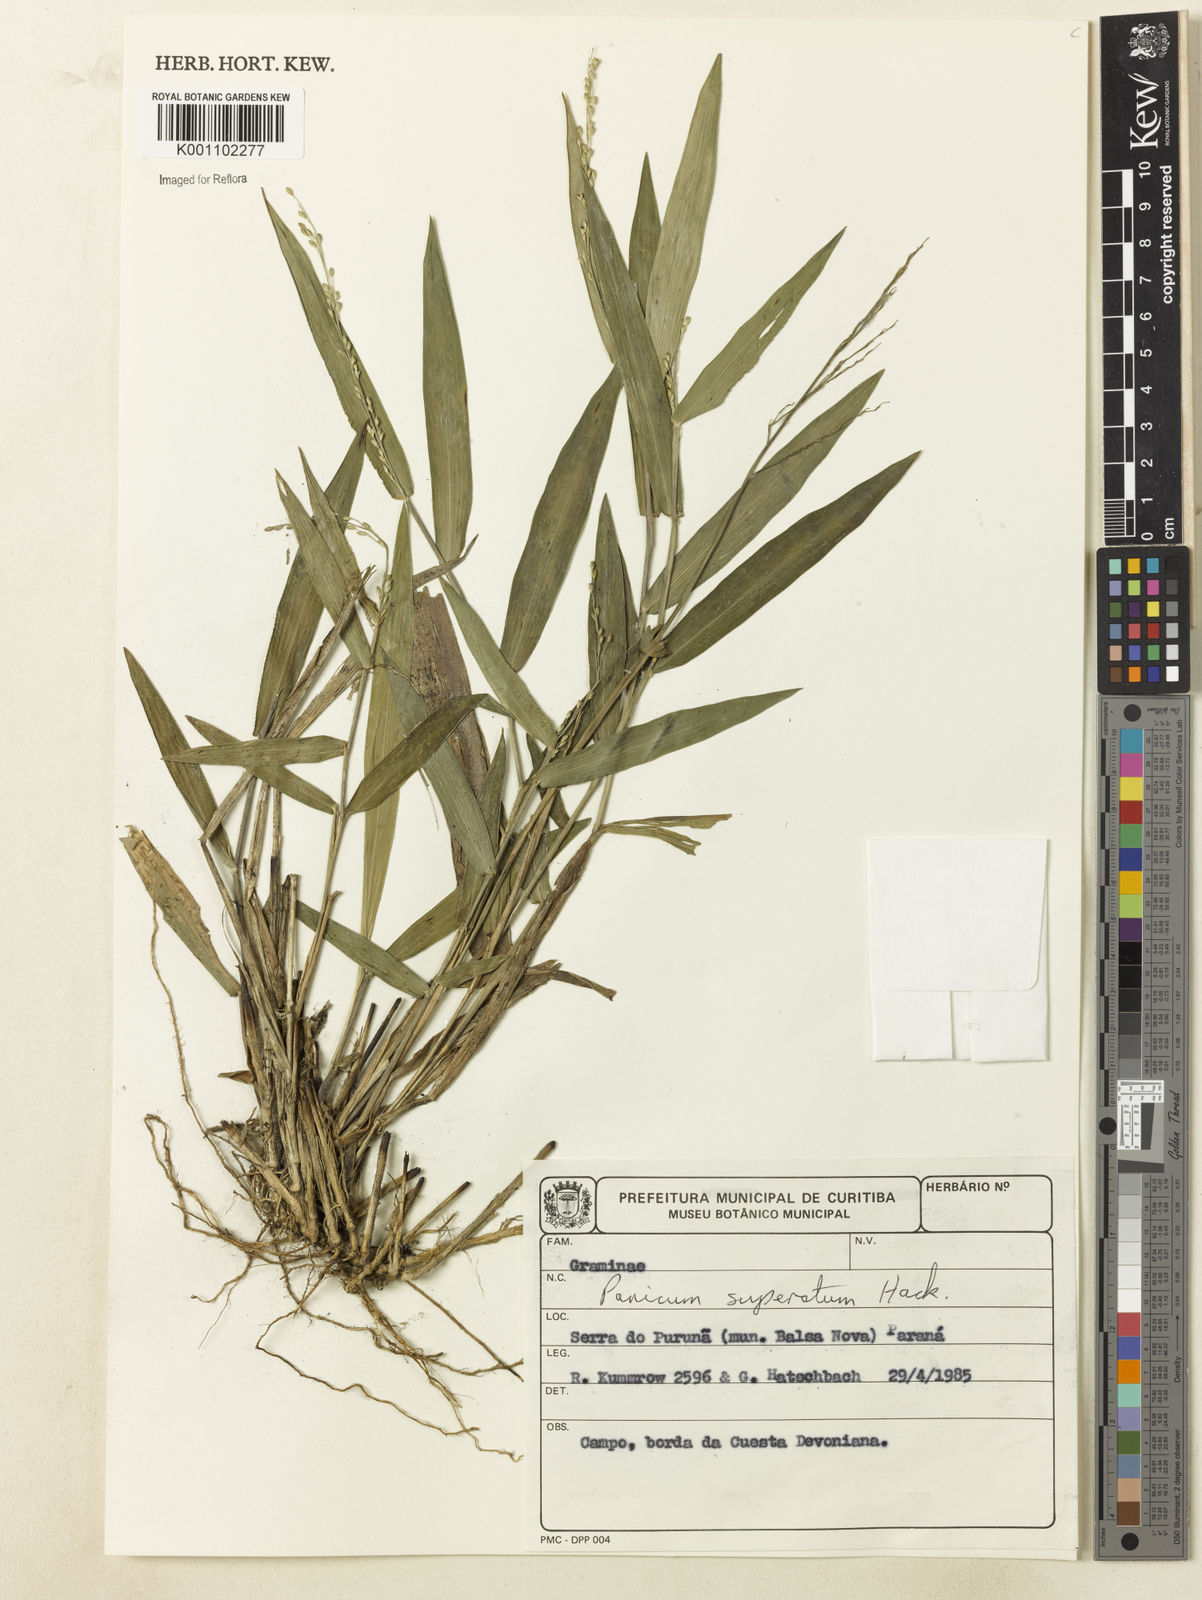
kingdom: Plantae
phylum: Tracheophyta
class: Liliopsida
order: Poales
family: Poaceae
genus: Dichanthelium
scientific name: Dichanthelium superatum
